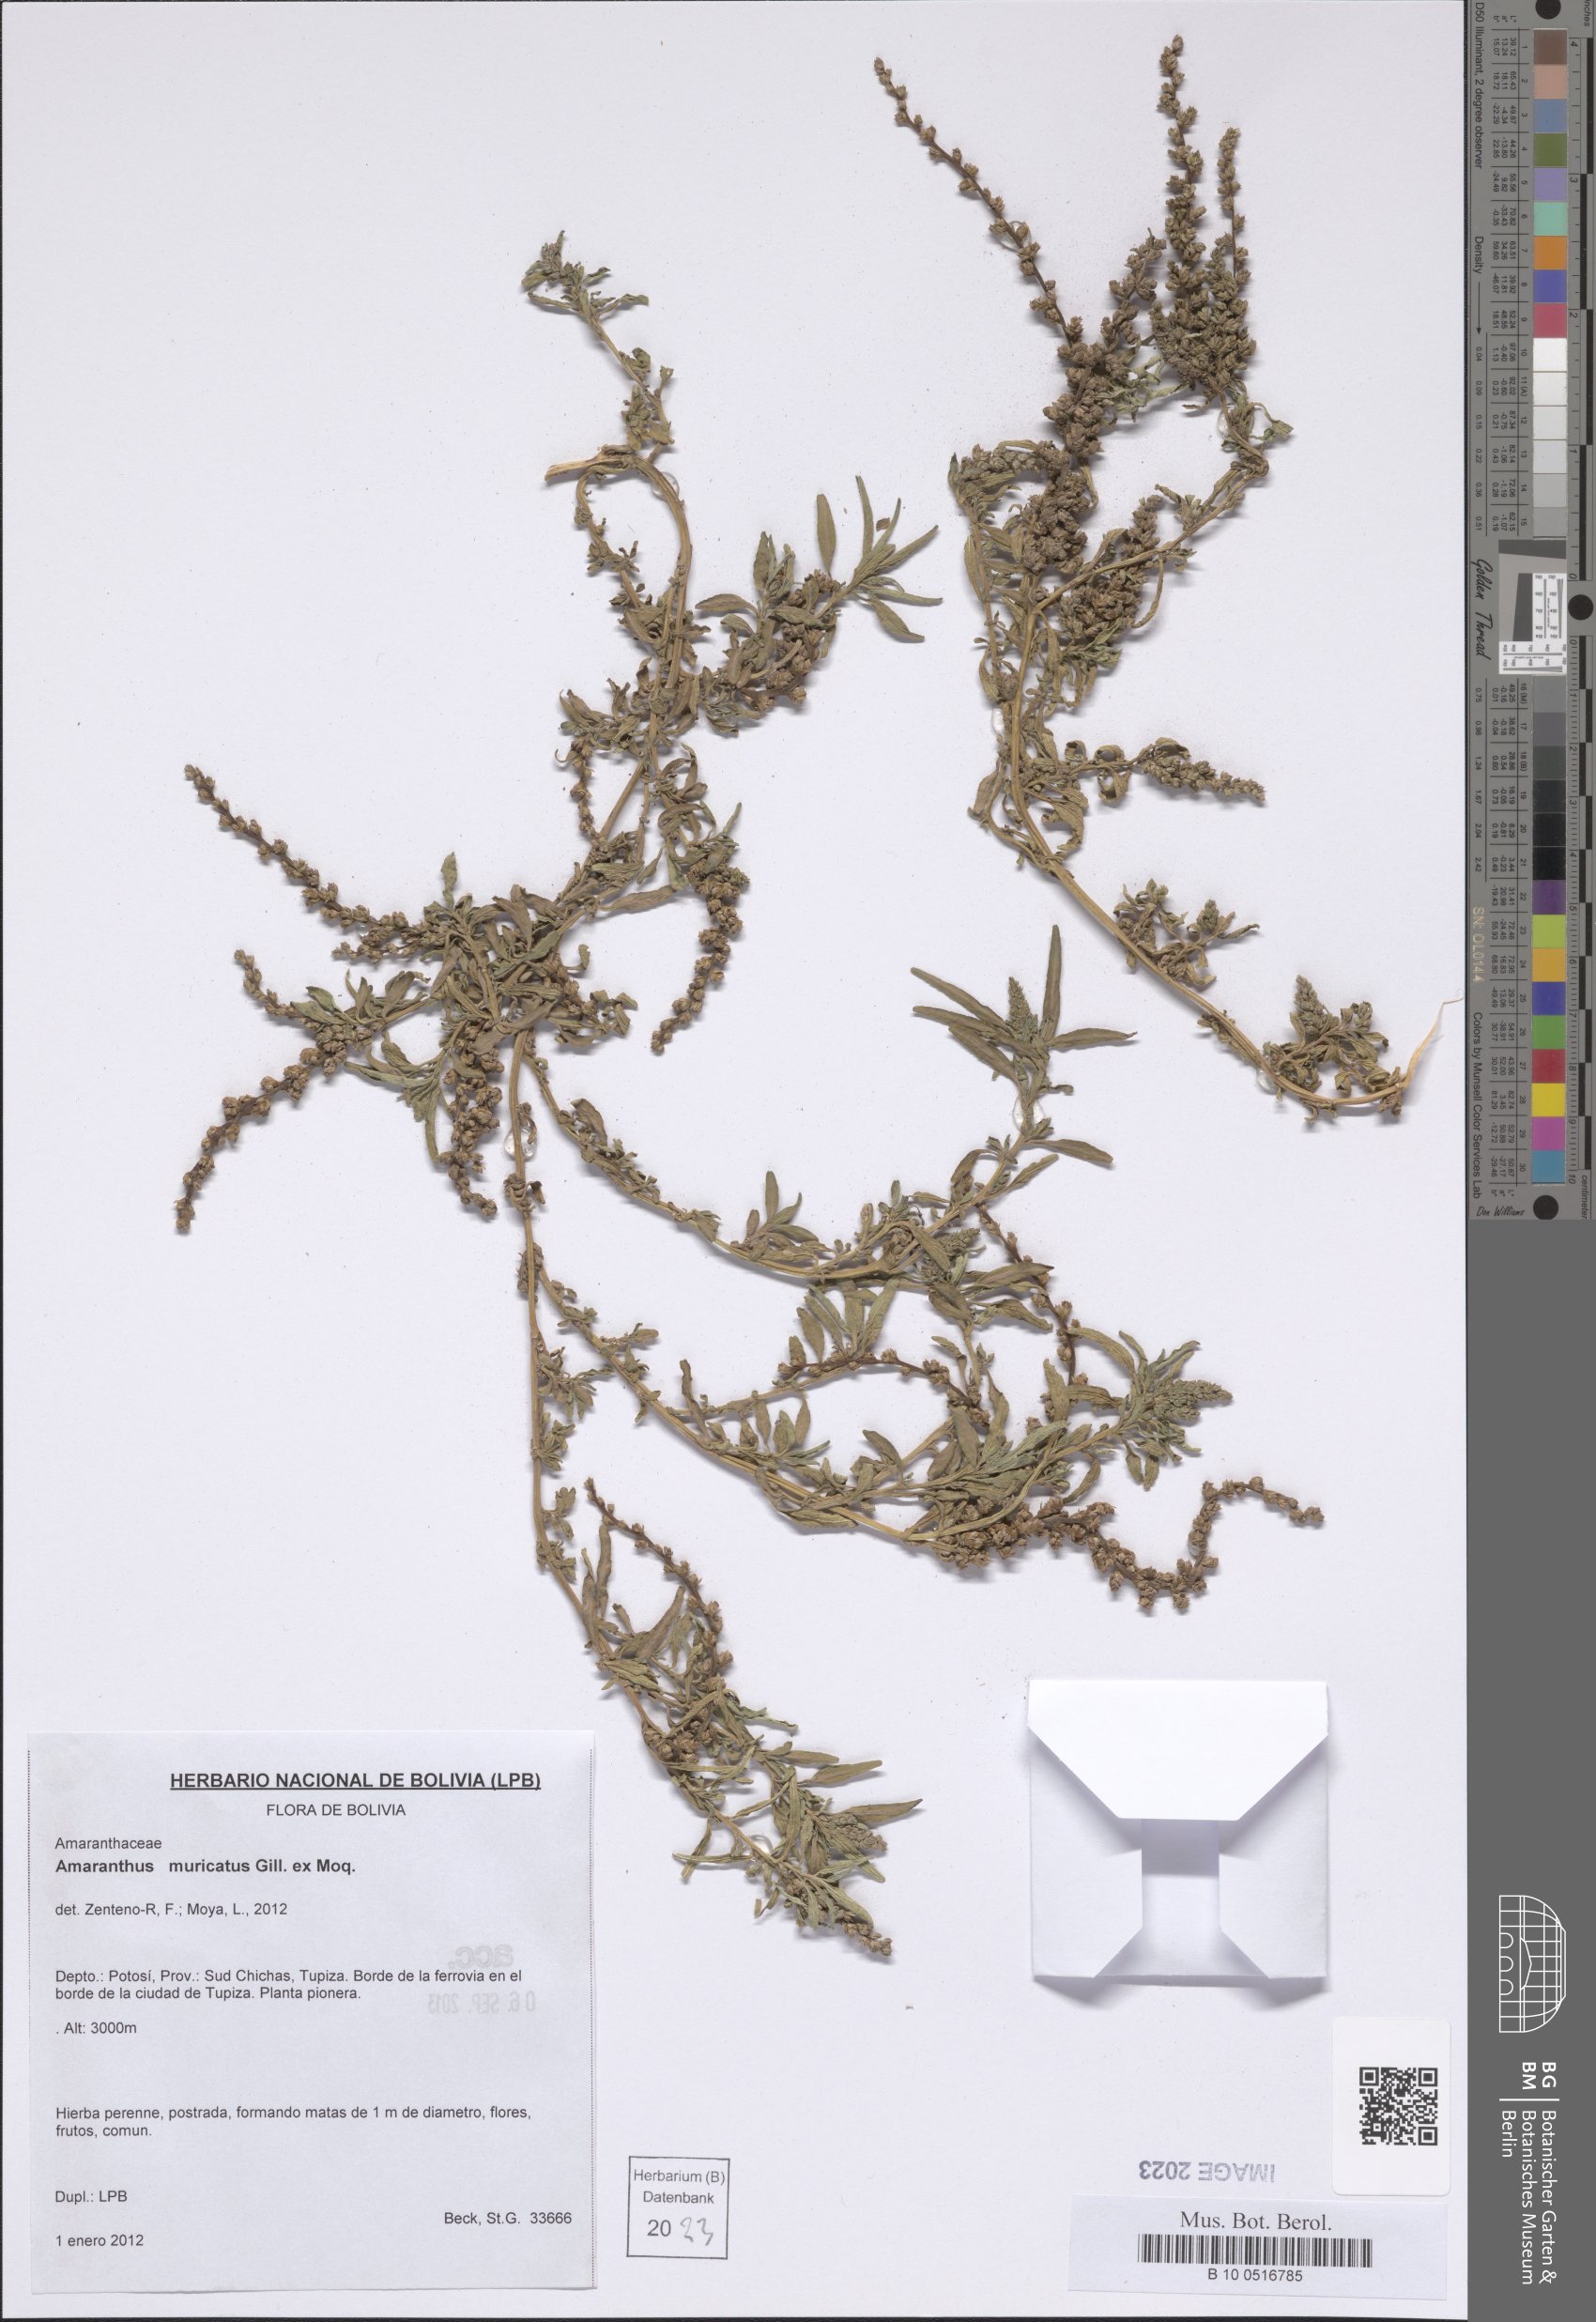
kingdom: Plantae
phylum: Tracheophyta
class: Magnoliopsida
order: Caryophyllales
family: Amaranthaceae
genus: Amaranthus
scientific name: Amaranthus muricatus
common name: African amaranth
